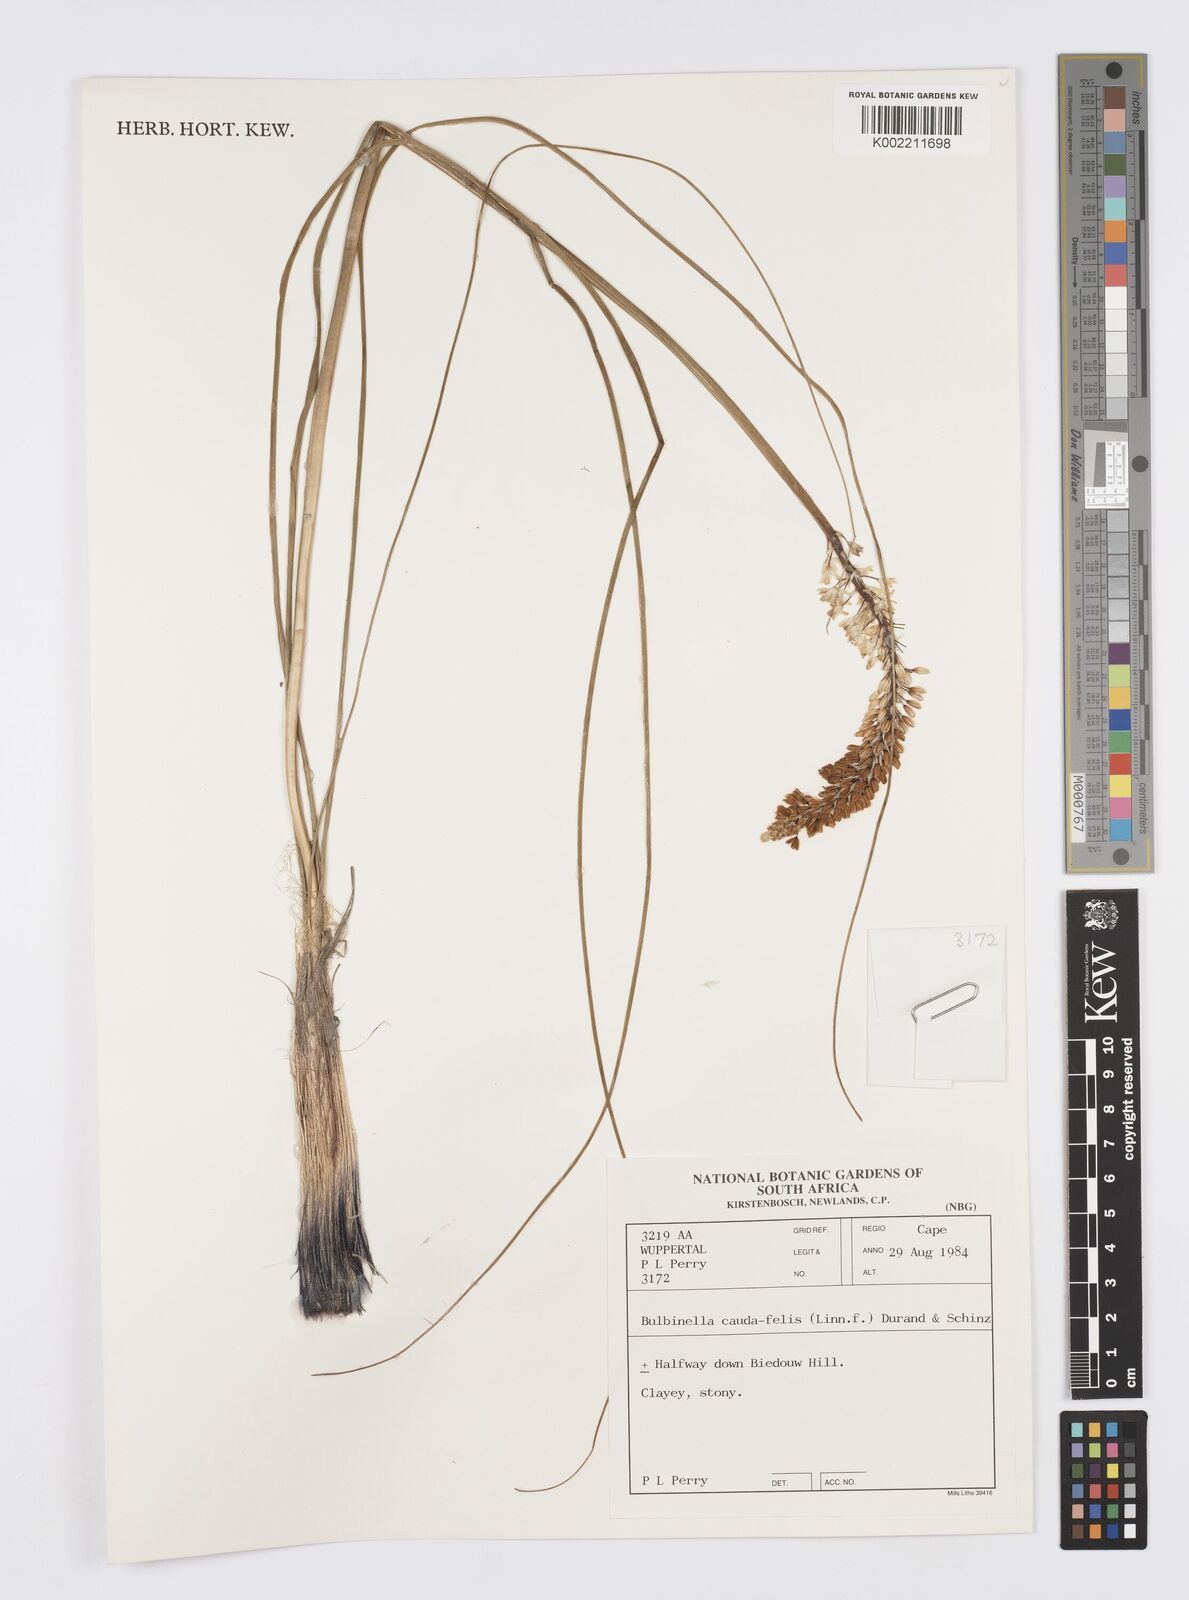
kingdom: Plantae
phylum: Tracheophyta
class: Liliopsida
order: Asparagales
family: Asphodelaceae
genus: Bulbinella
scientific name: Bulbinella cauda-felis
